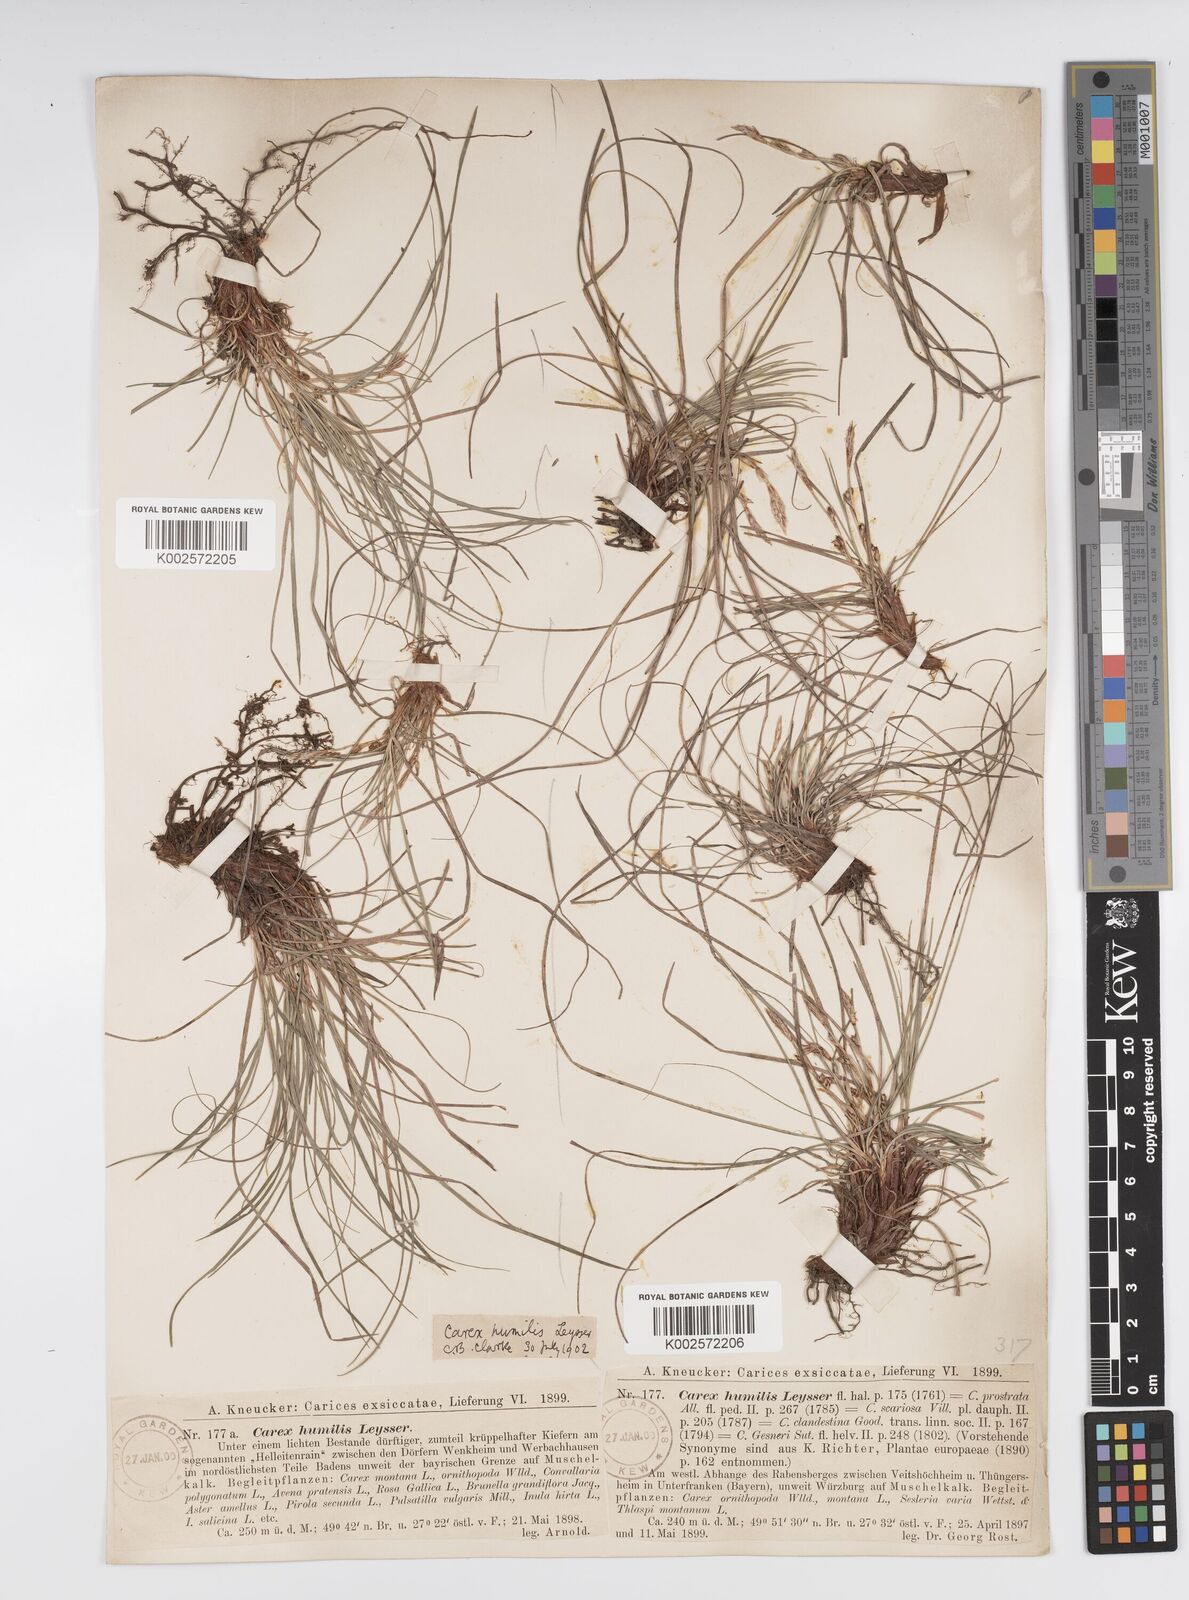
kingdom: Plantae
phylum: Tracheophyta
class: Liliopsida
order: Poales
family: Cyperaceae
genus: Carex
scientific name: Carex humilis
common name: Dwarf sedge
